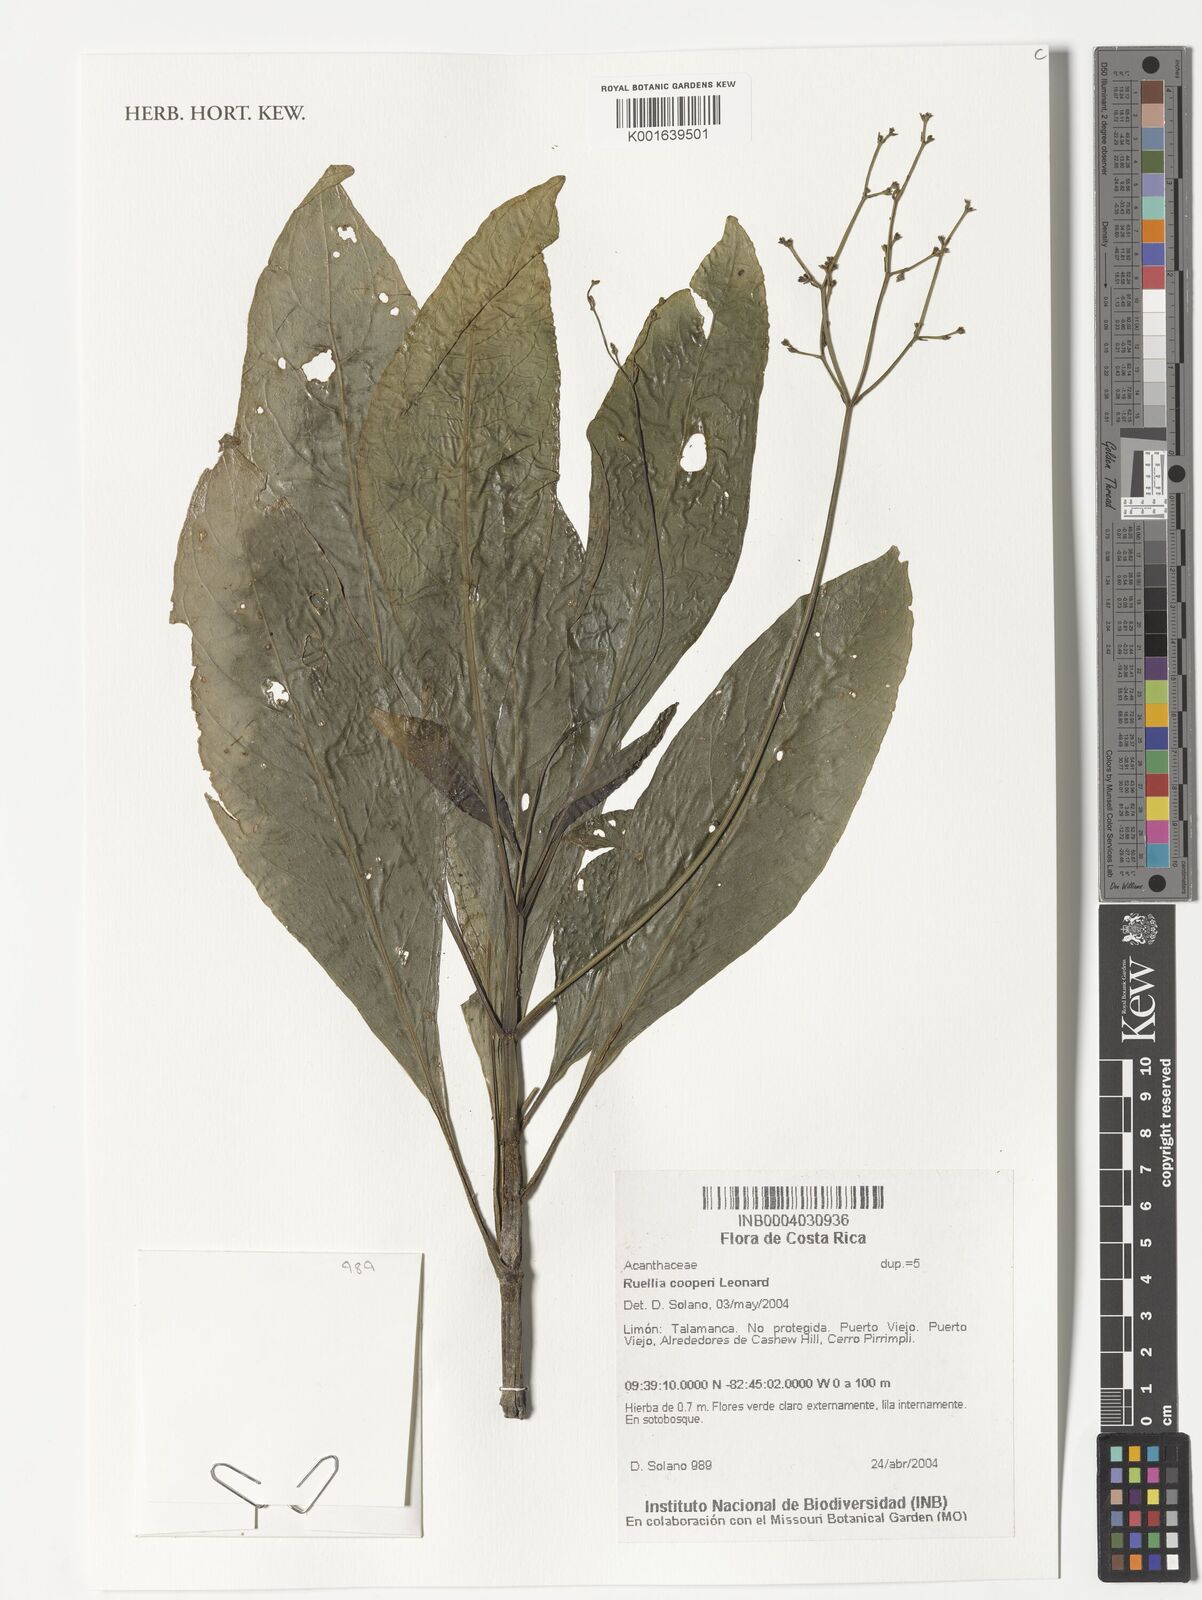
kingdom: Plantae
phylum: Tracheophyta
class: Magnoliopsida
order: Lamiales
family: Acanthaceae
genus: Ruellia
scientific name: Ruellia biolleyi
